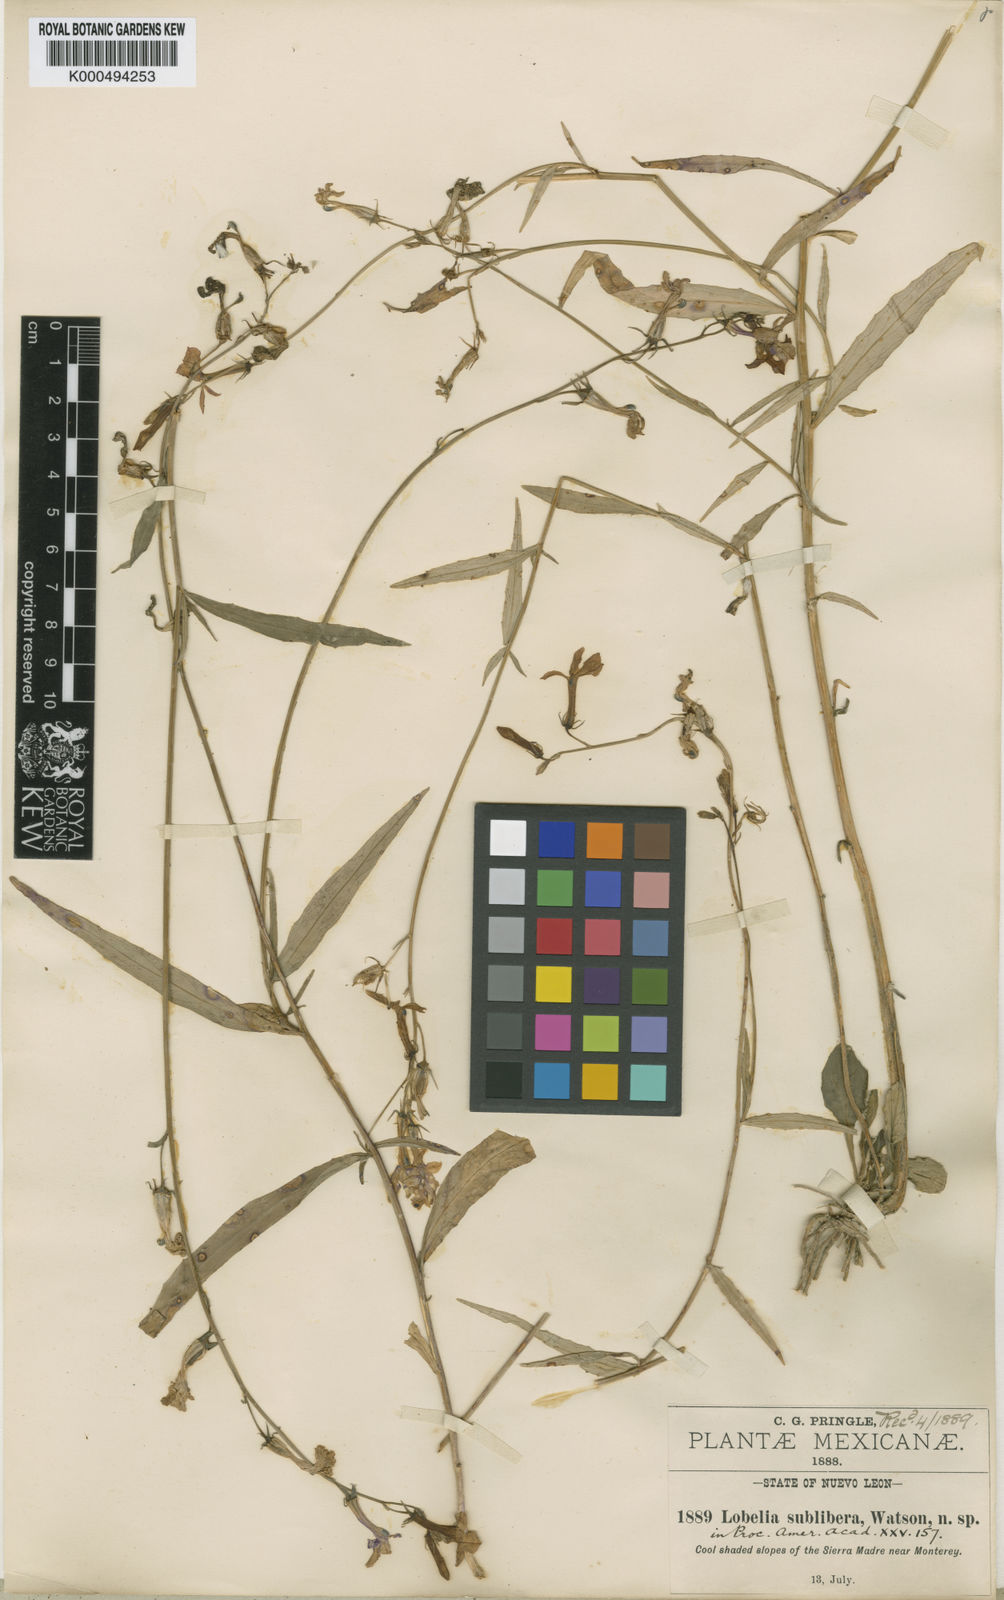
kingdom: Plantae
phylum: Tracheophyta
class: Magnoliopsida
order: Asterales
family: Campanulaceae
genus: Lobelia
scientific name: Lobelia sublibera
